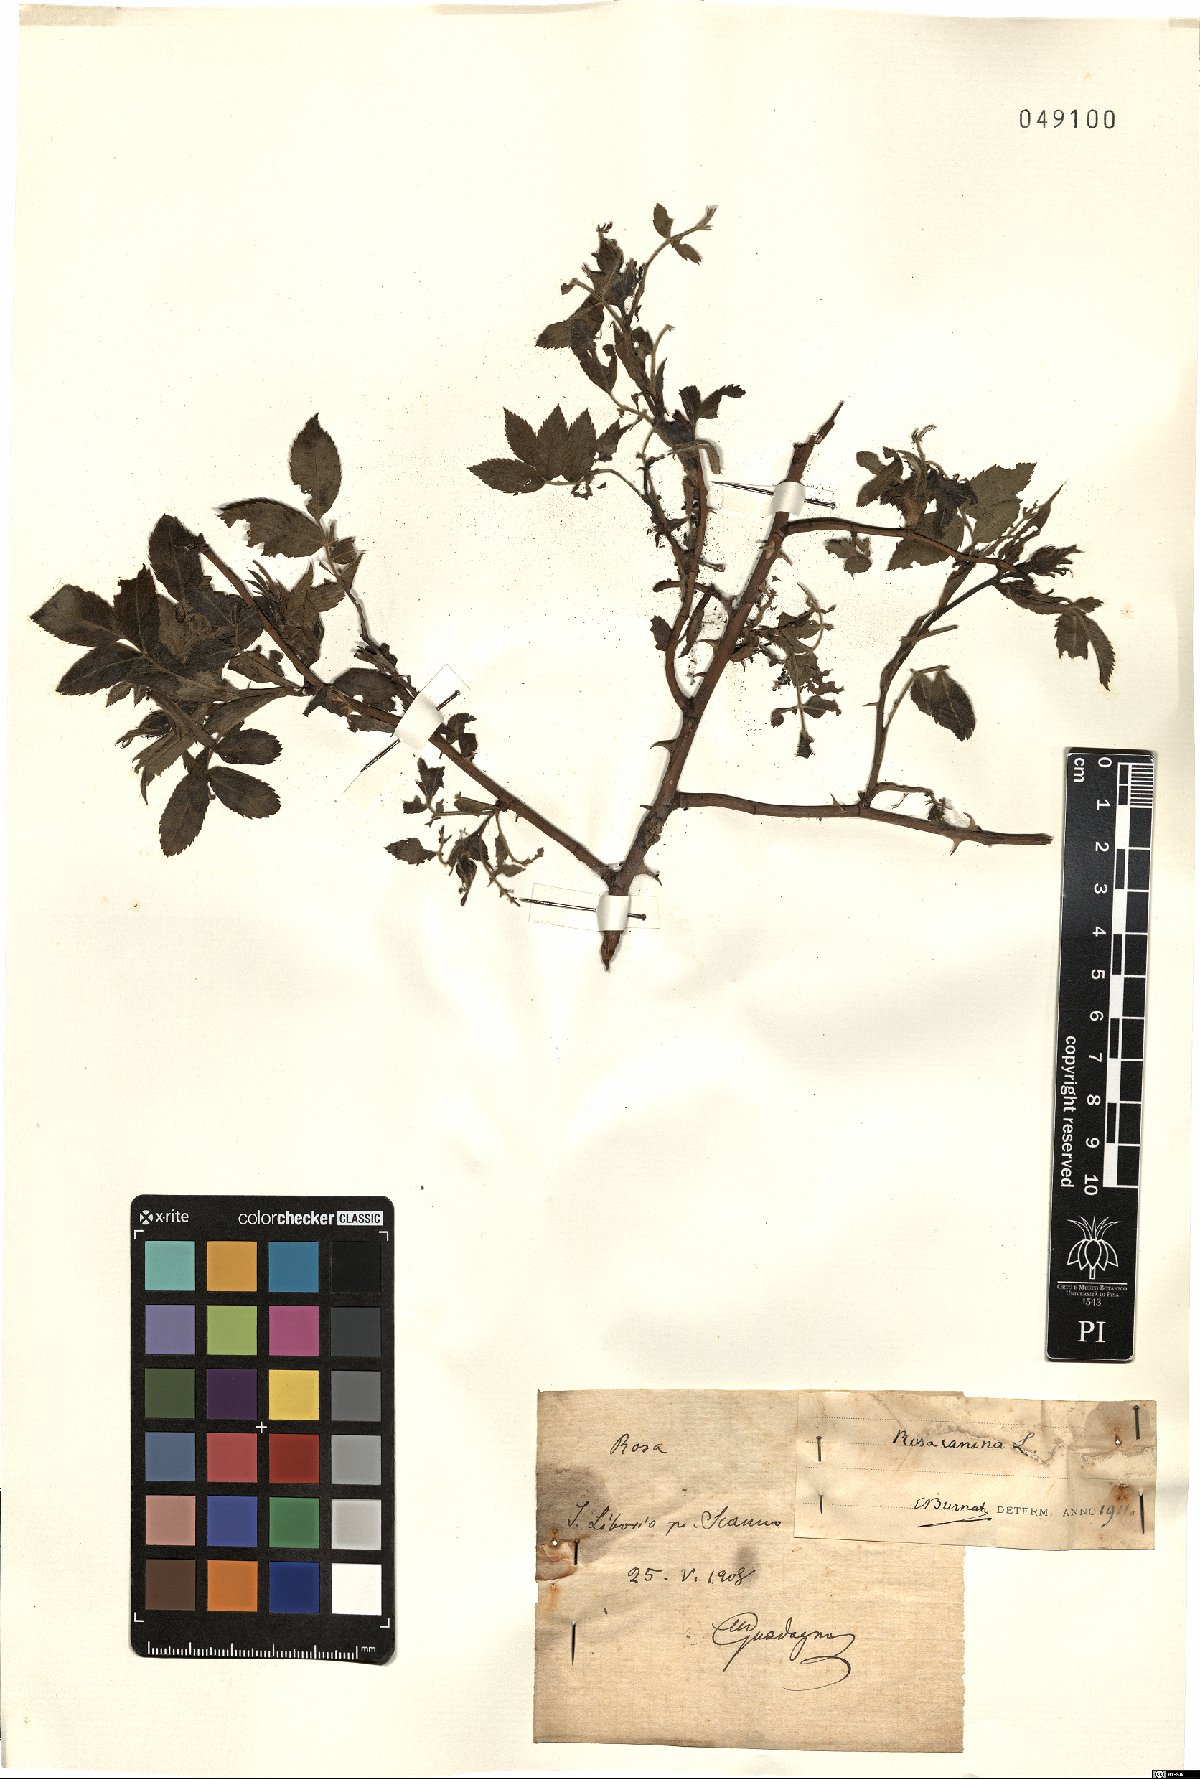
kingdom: Plantae
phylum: Tracheophyta
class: Magnoliopsida
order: Rosales
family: Rosaceae
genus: Rosa
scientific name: Rosa canina
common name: Dog rose
